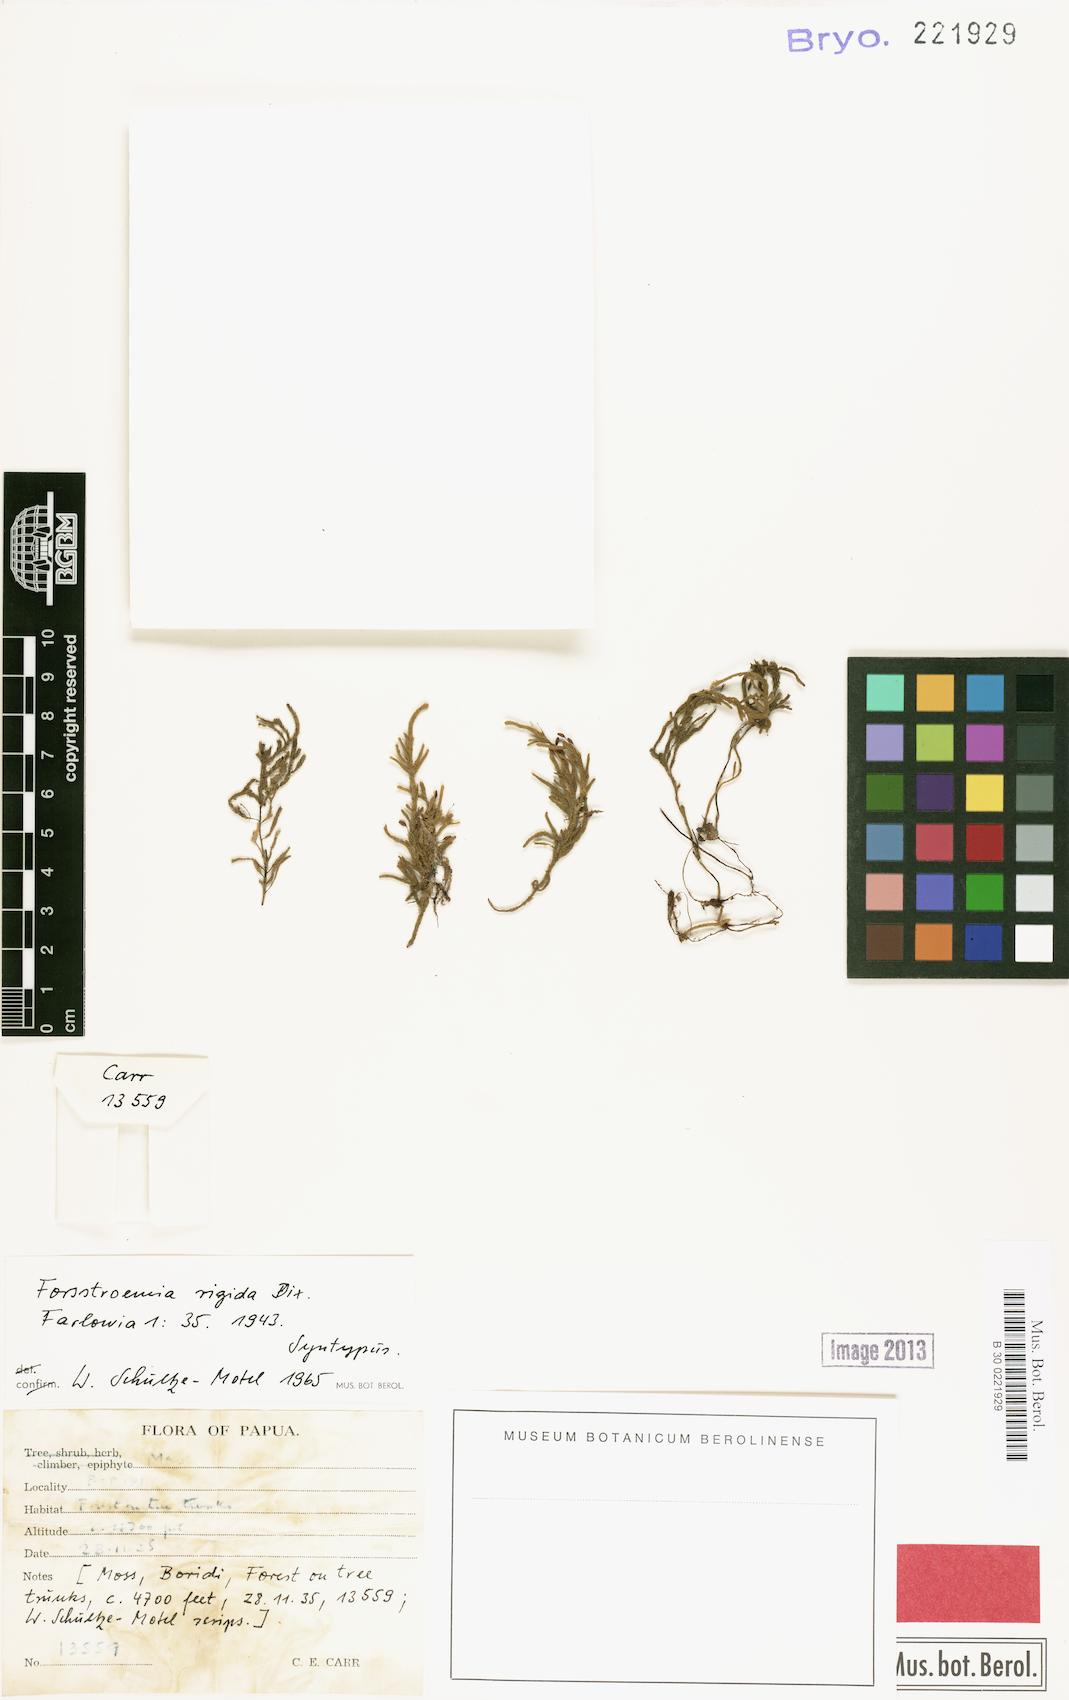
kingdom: Plantae
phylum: Bryophyta
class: Bryopsida
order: Hypnales
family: Pterobryaceae
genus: Neolindbergia
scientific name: Neolindbergia vitiensis
